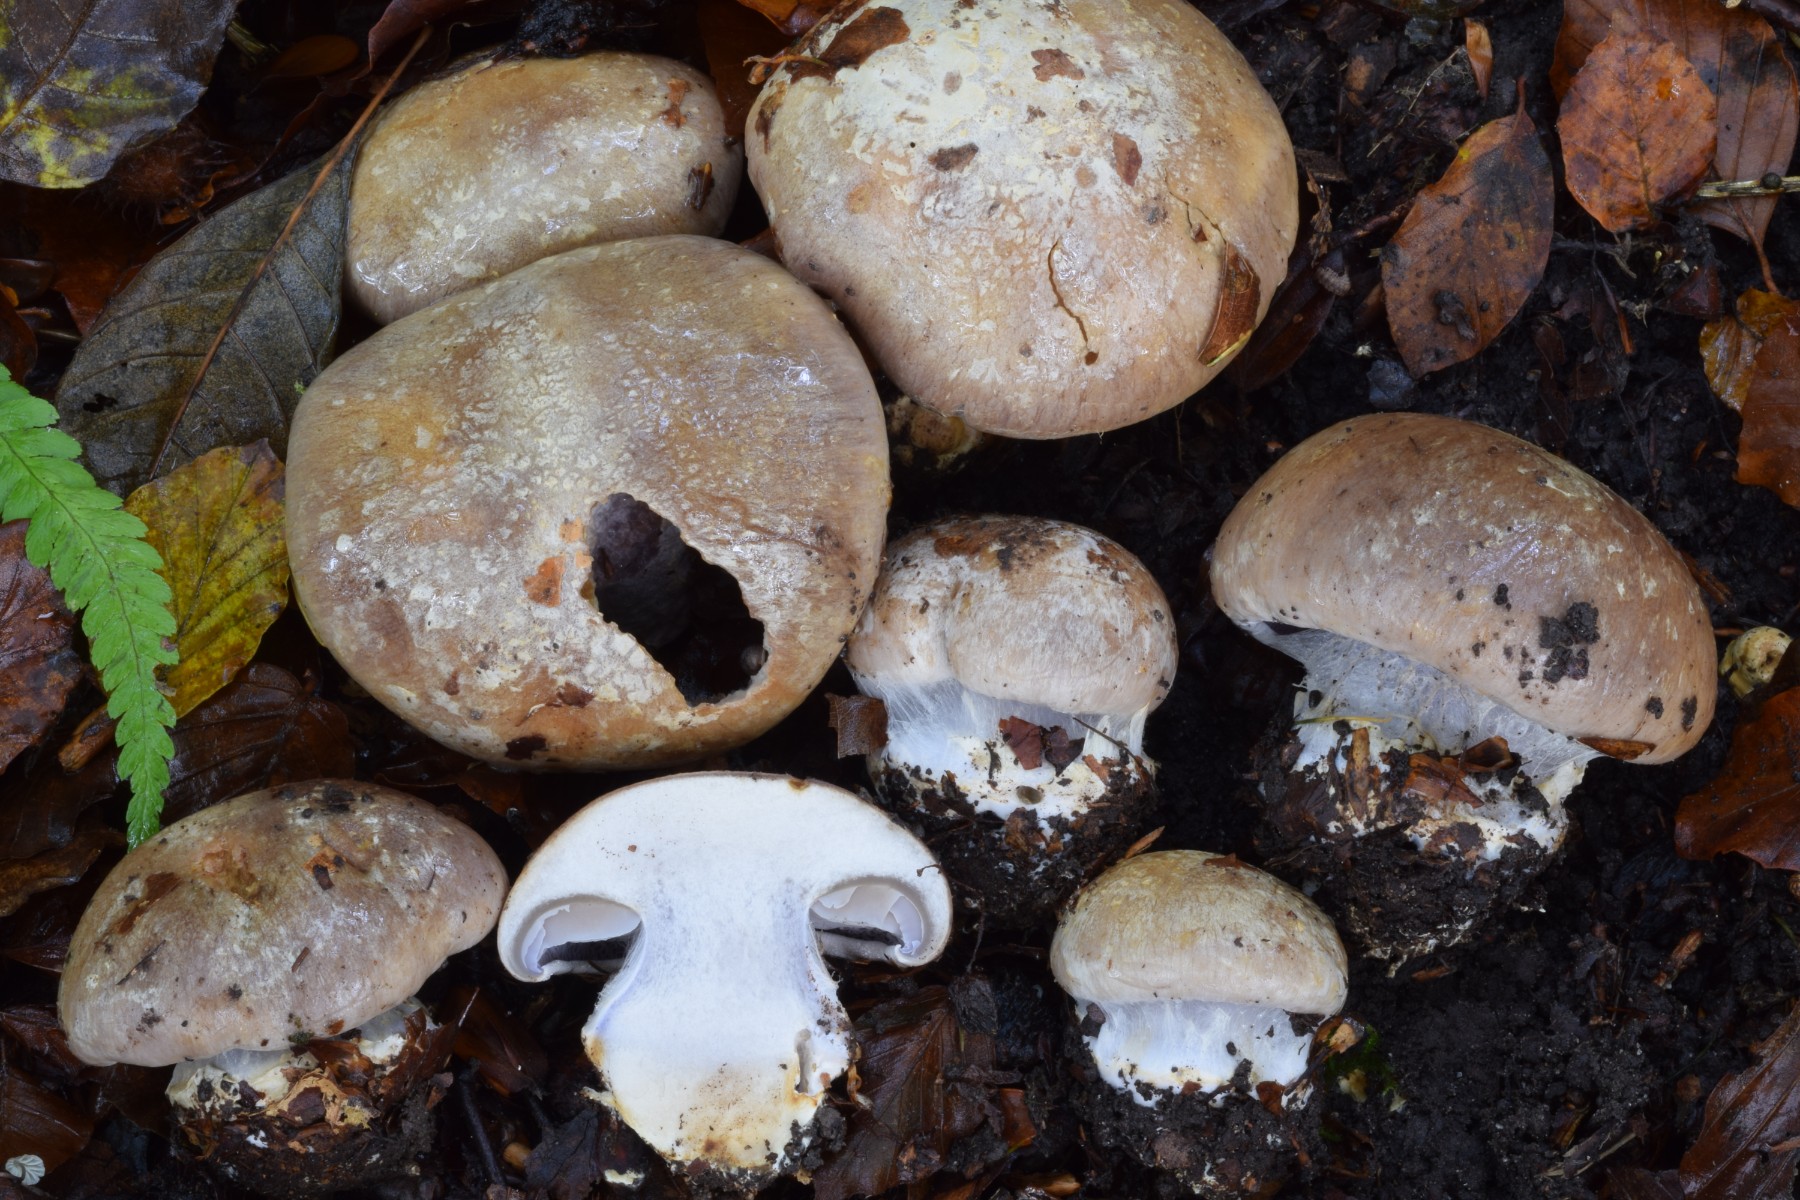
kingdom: Fungi
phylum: Basidiomycota
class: Agaricomycetes
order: Agaricales
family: Cortinariaceae
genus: Cortinarius
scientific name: Cortinarius foetens
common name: stribet slørhat
